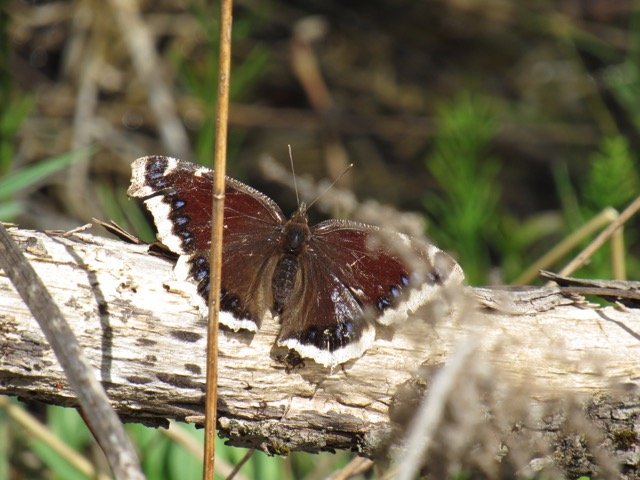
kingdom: Animalia
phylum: Arthropoda
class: Insecta
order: Lepidoptera
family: Nymphalidae
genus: Nymphalis
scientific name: Nymphalis antiopa
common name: Mourning Cloak
